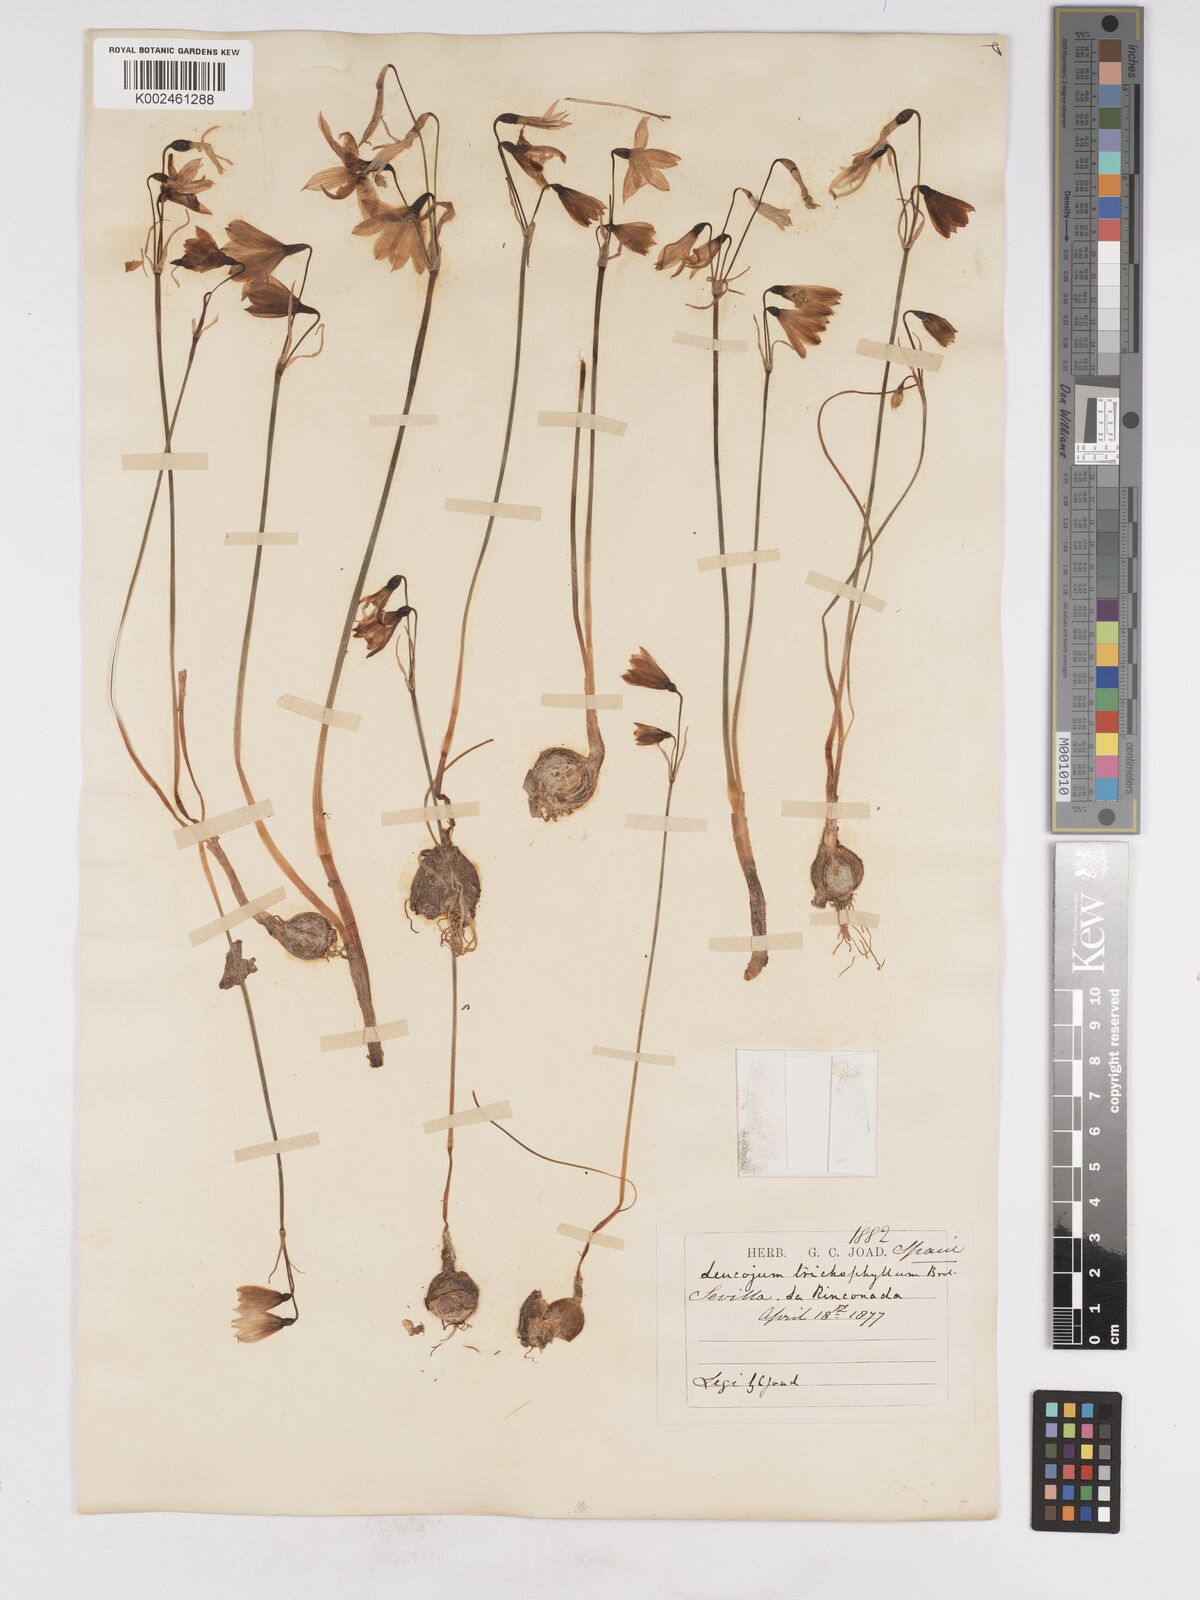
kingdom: Plantae
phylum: Tracheophyta
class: Liliopsida
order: Asparagales
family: Amaryllidaceae
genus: Acis
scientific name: Acis trichophylla
